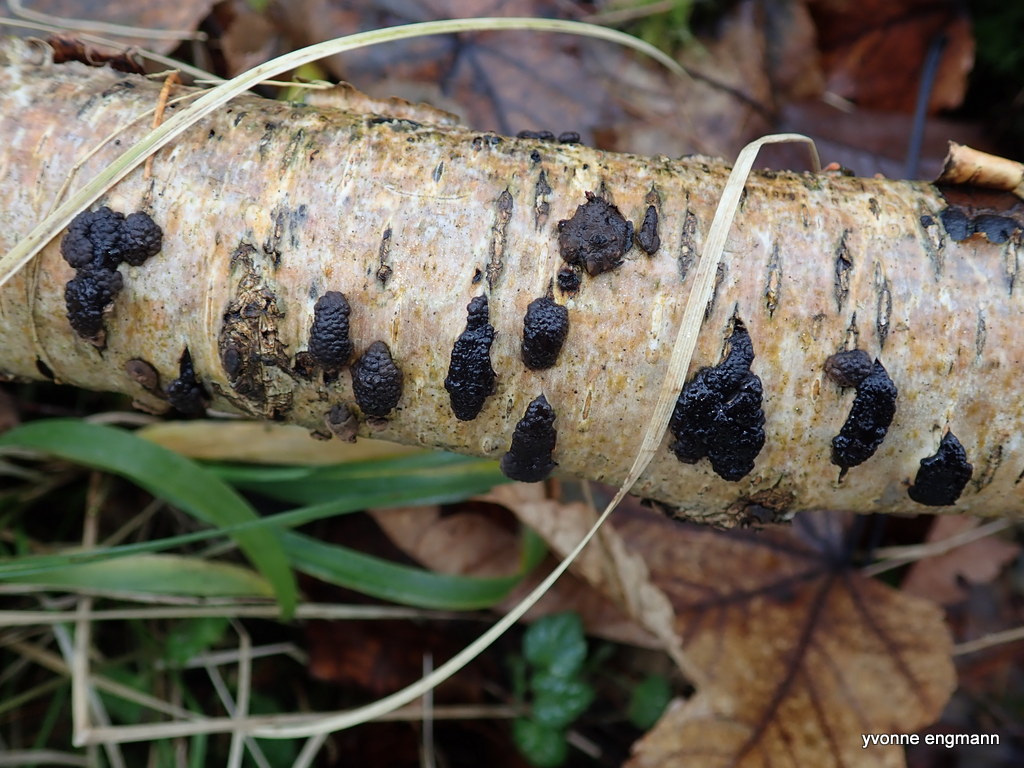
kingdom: Fungi
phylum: Ascomycota
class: Sordariomycetes
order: Xylariales
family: Hypoxylaceae
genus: Jackrogersella
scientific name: Jackrogersella multiformis
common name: foranderlig kulbær
